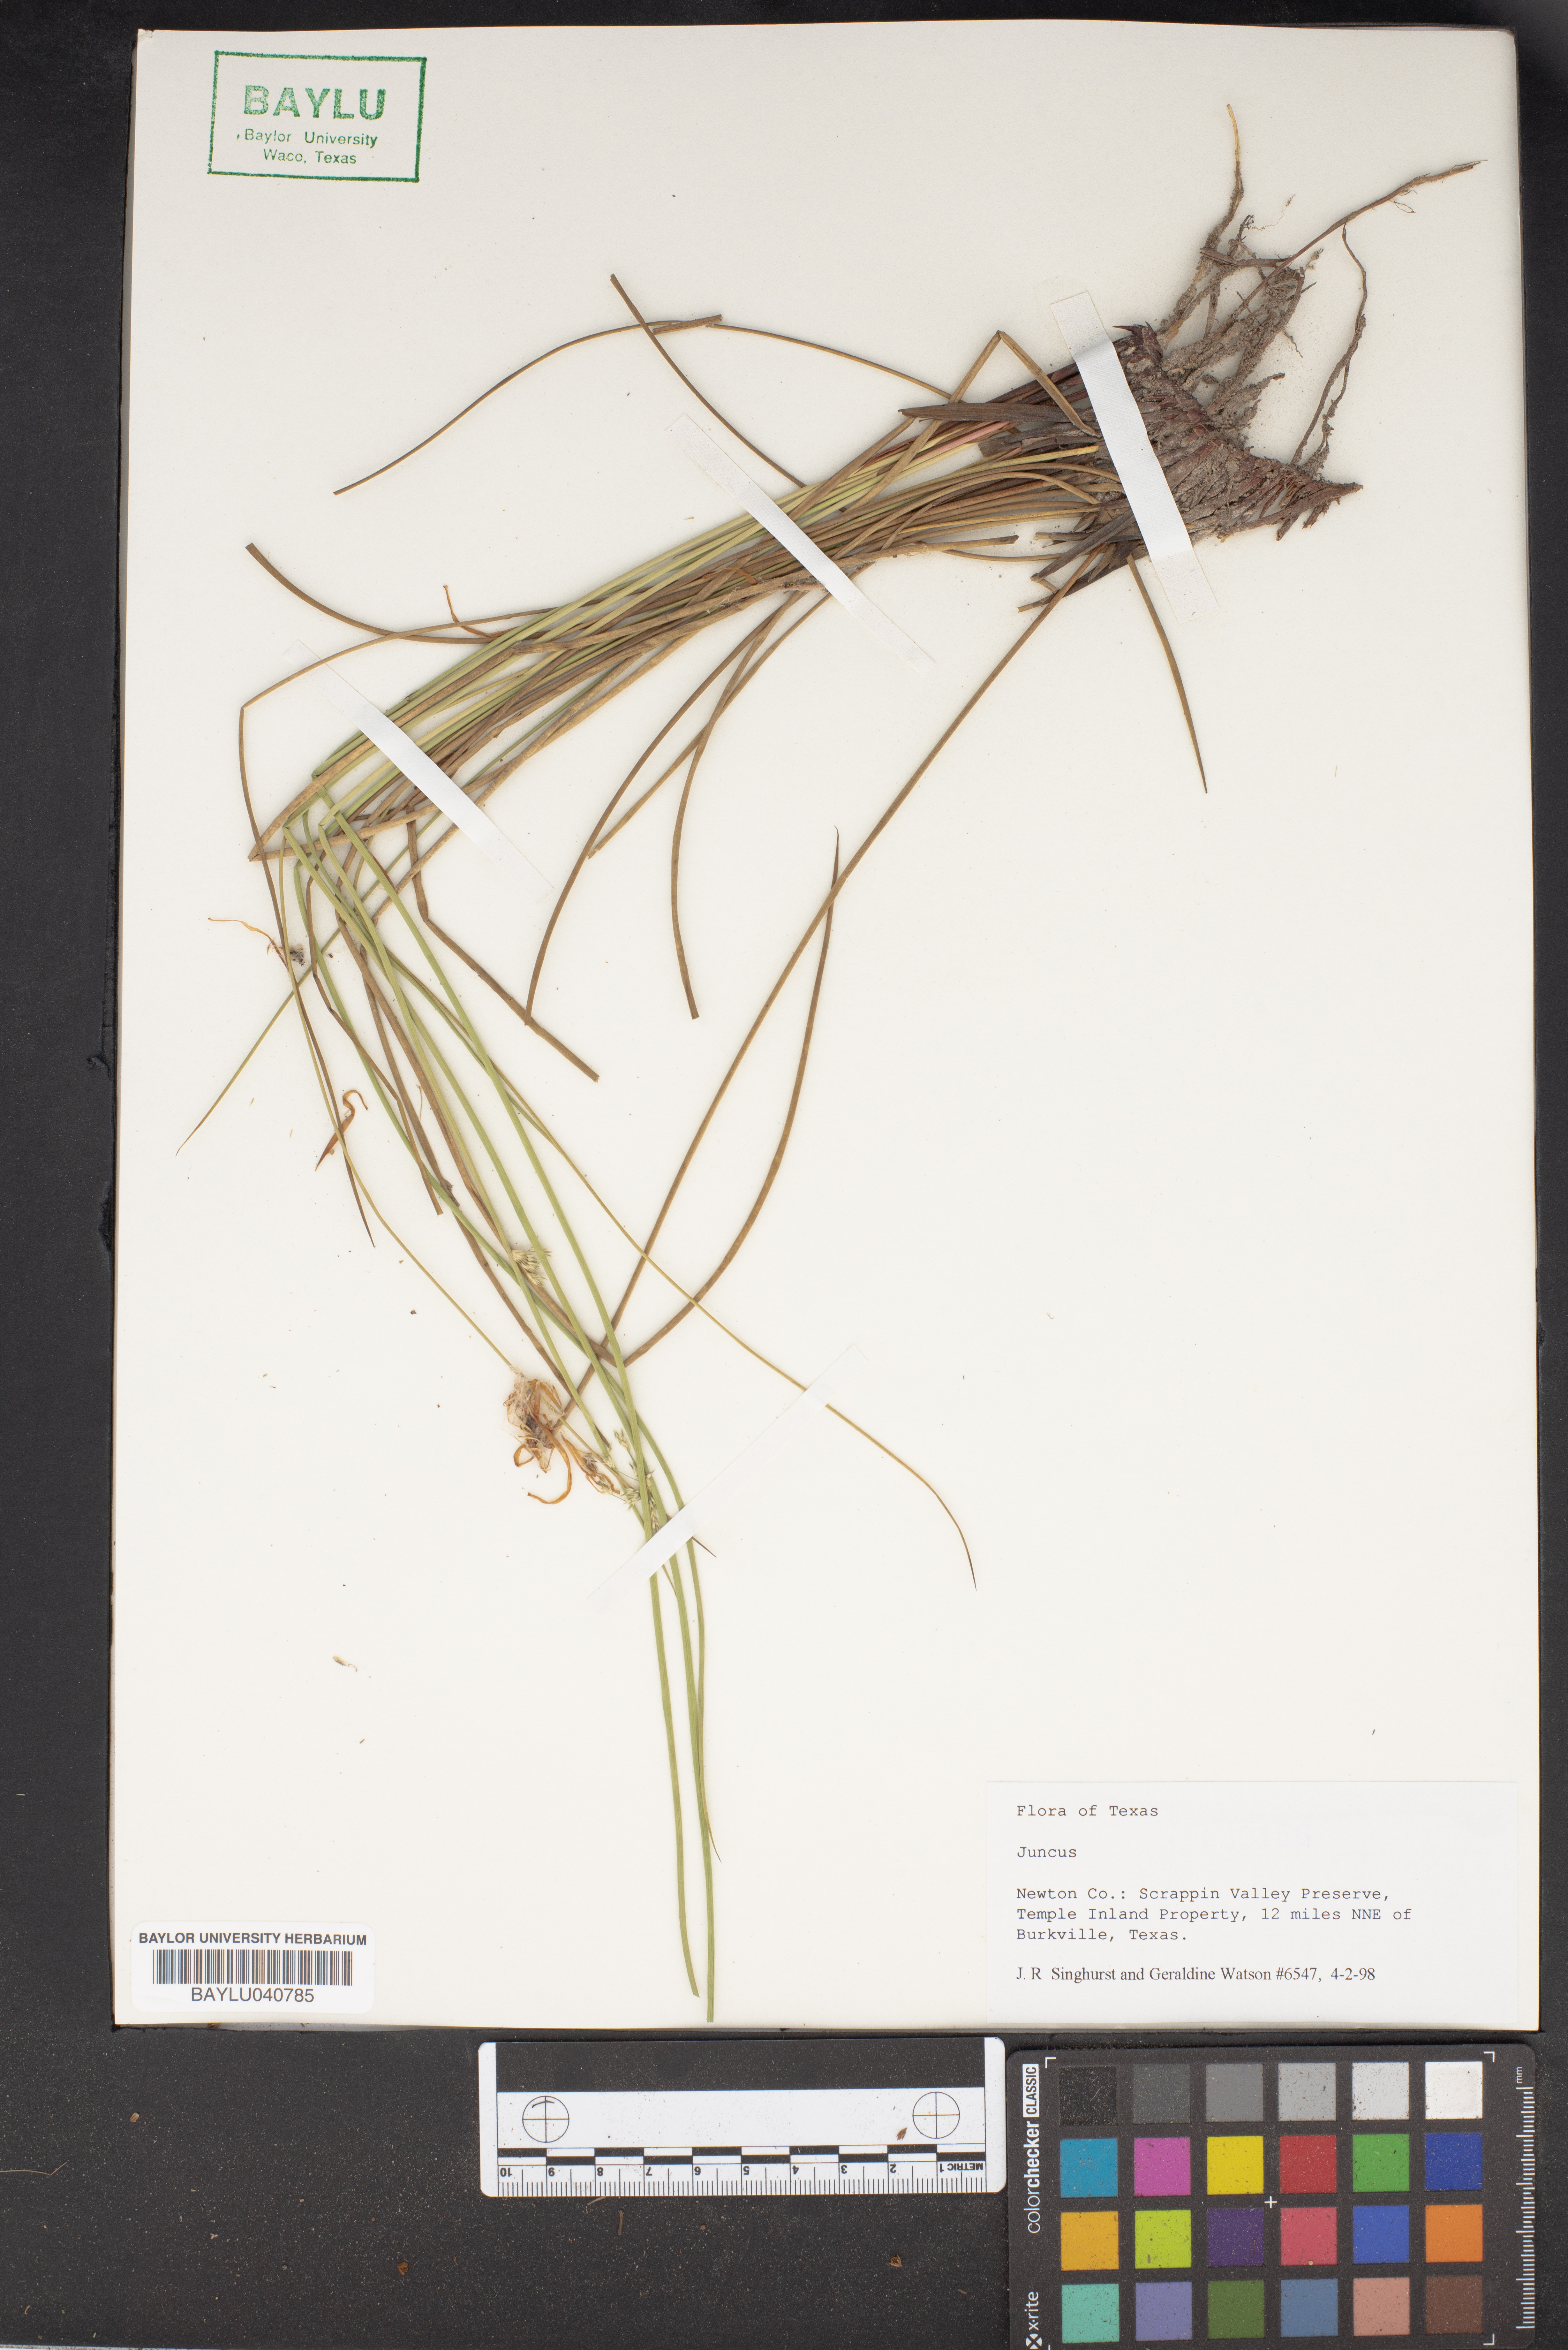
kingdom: Plantae
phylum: Tracheophyta
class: Liliopsida
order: Poales
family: Juncaceae
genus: Juncus
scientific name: Juncus
